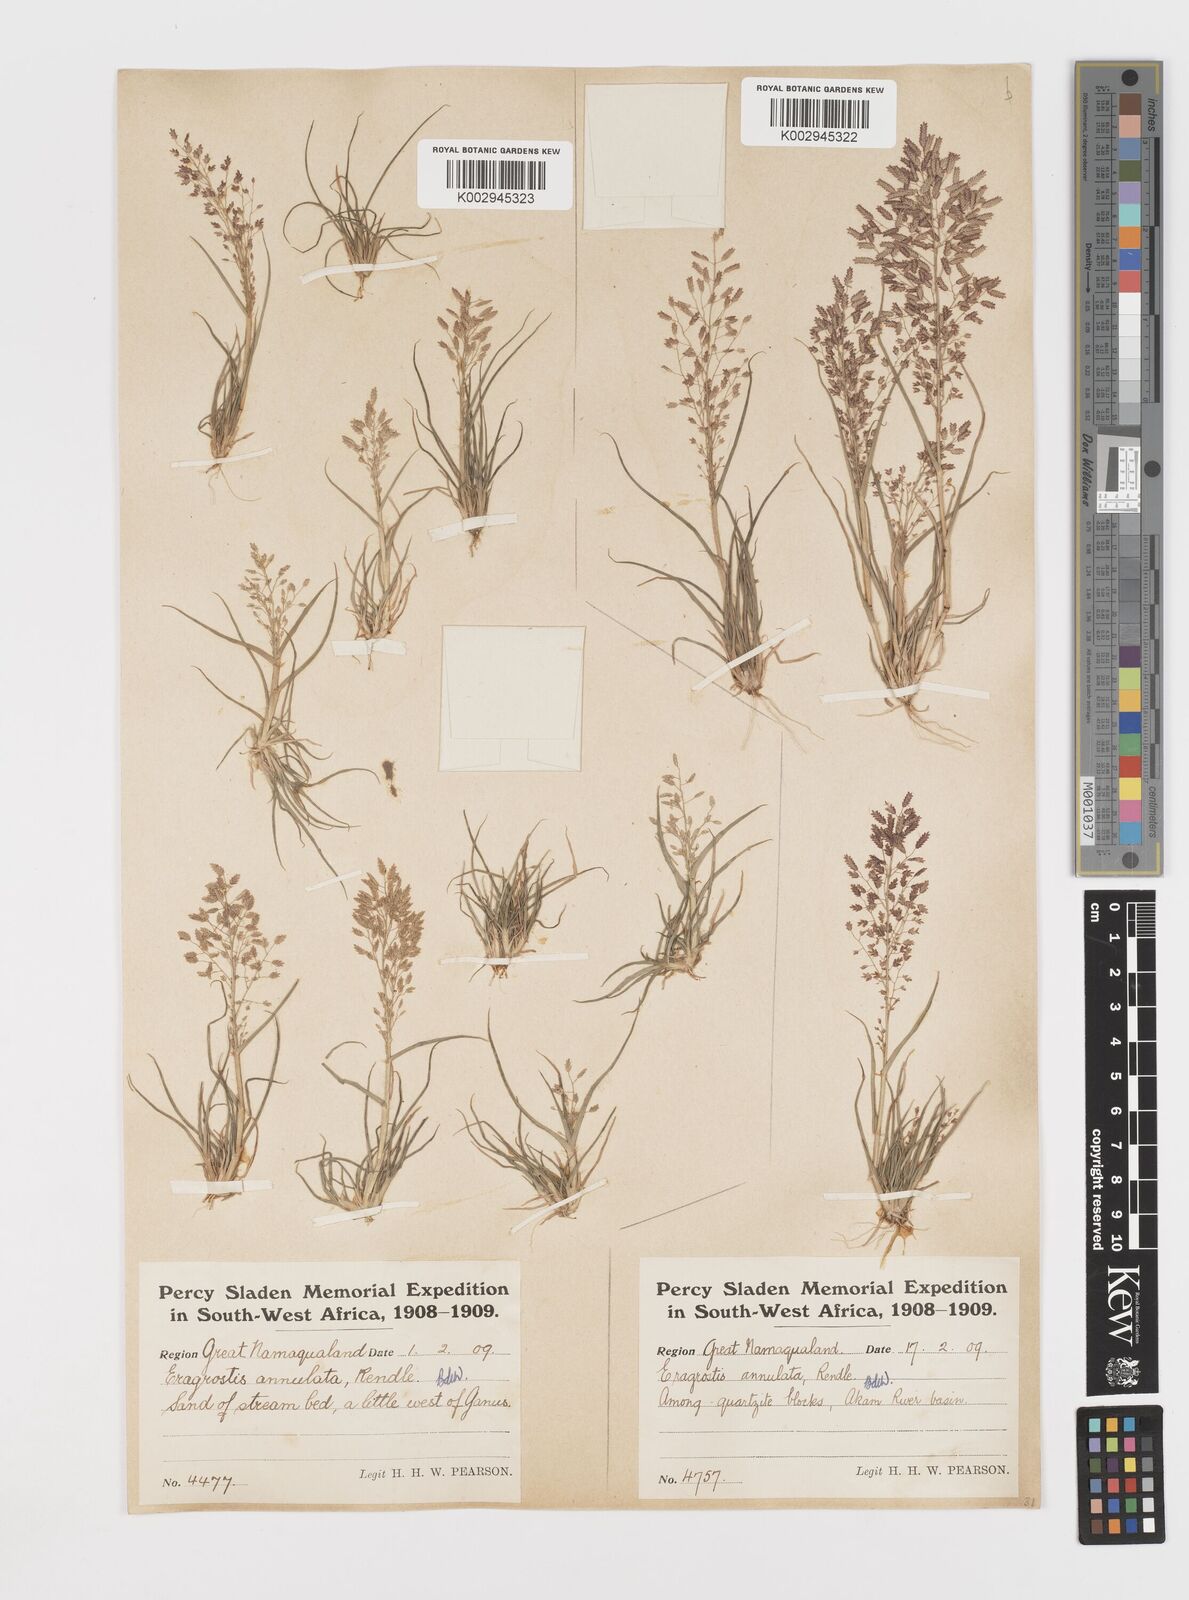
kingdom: Plantae
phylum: Tracheophyta
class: Liliopsida
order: Poales
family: Poaceae
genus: Eragrostis
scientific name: Eragrostis annulata
